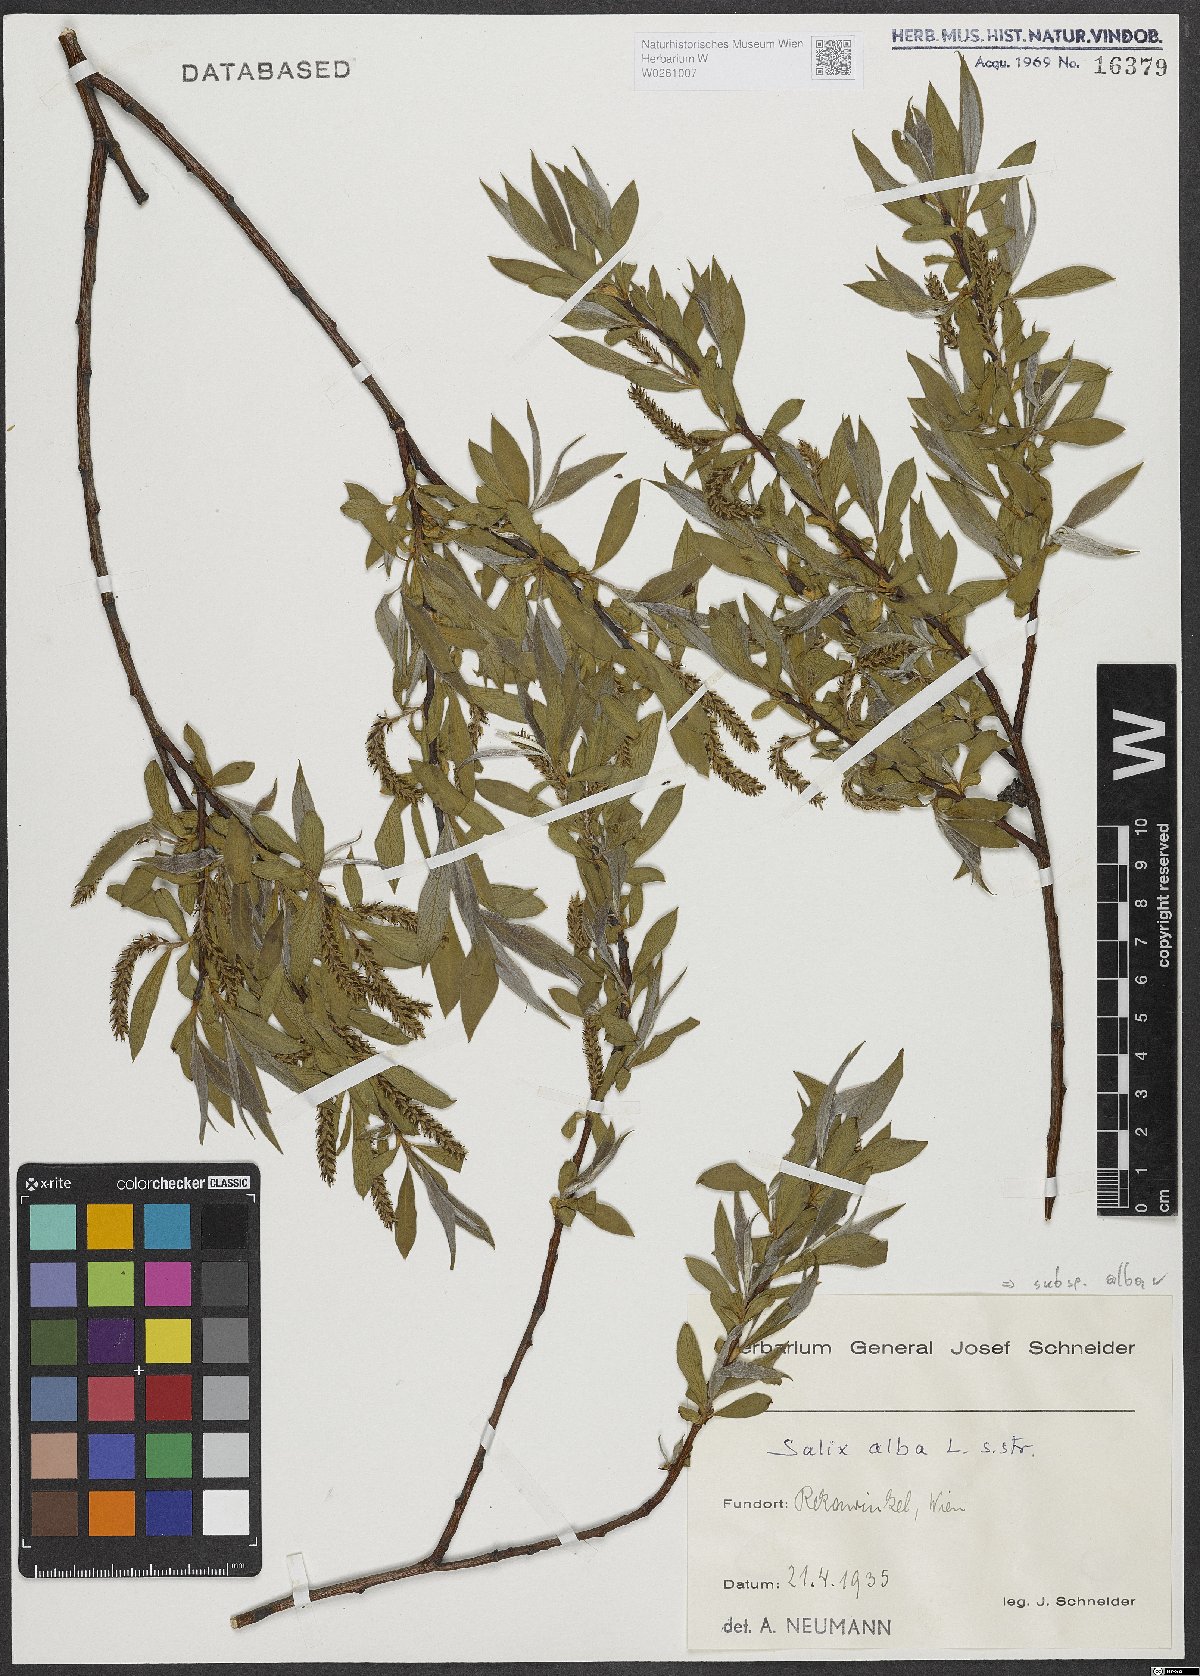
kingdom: Plantae
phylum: Tracheophyta
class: Magnoliopsida
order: Malpighiales
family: Salicaceae
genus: Salix
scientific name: Salix alba
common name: White willow
